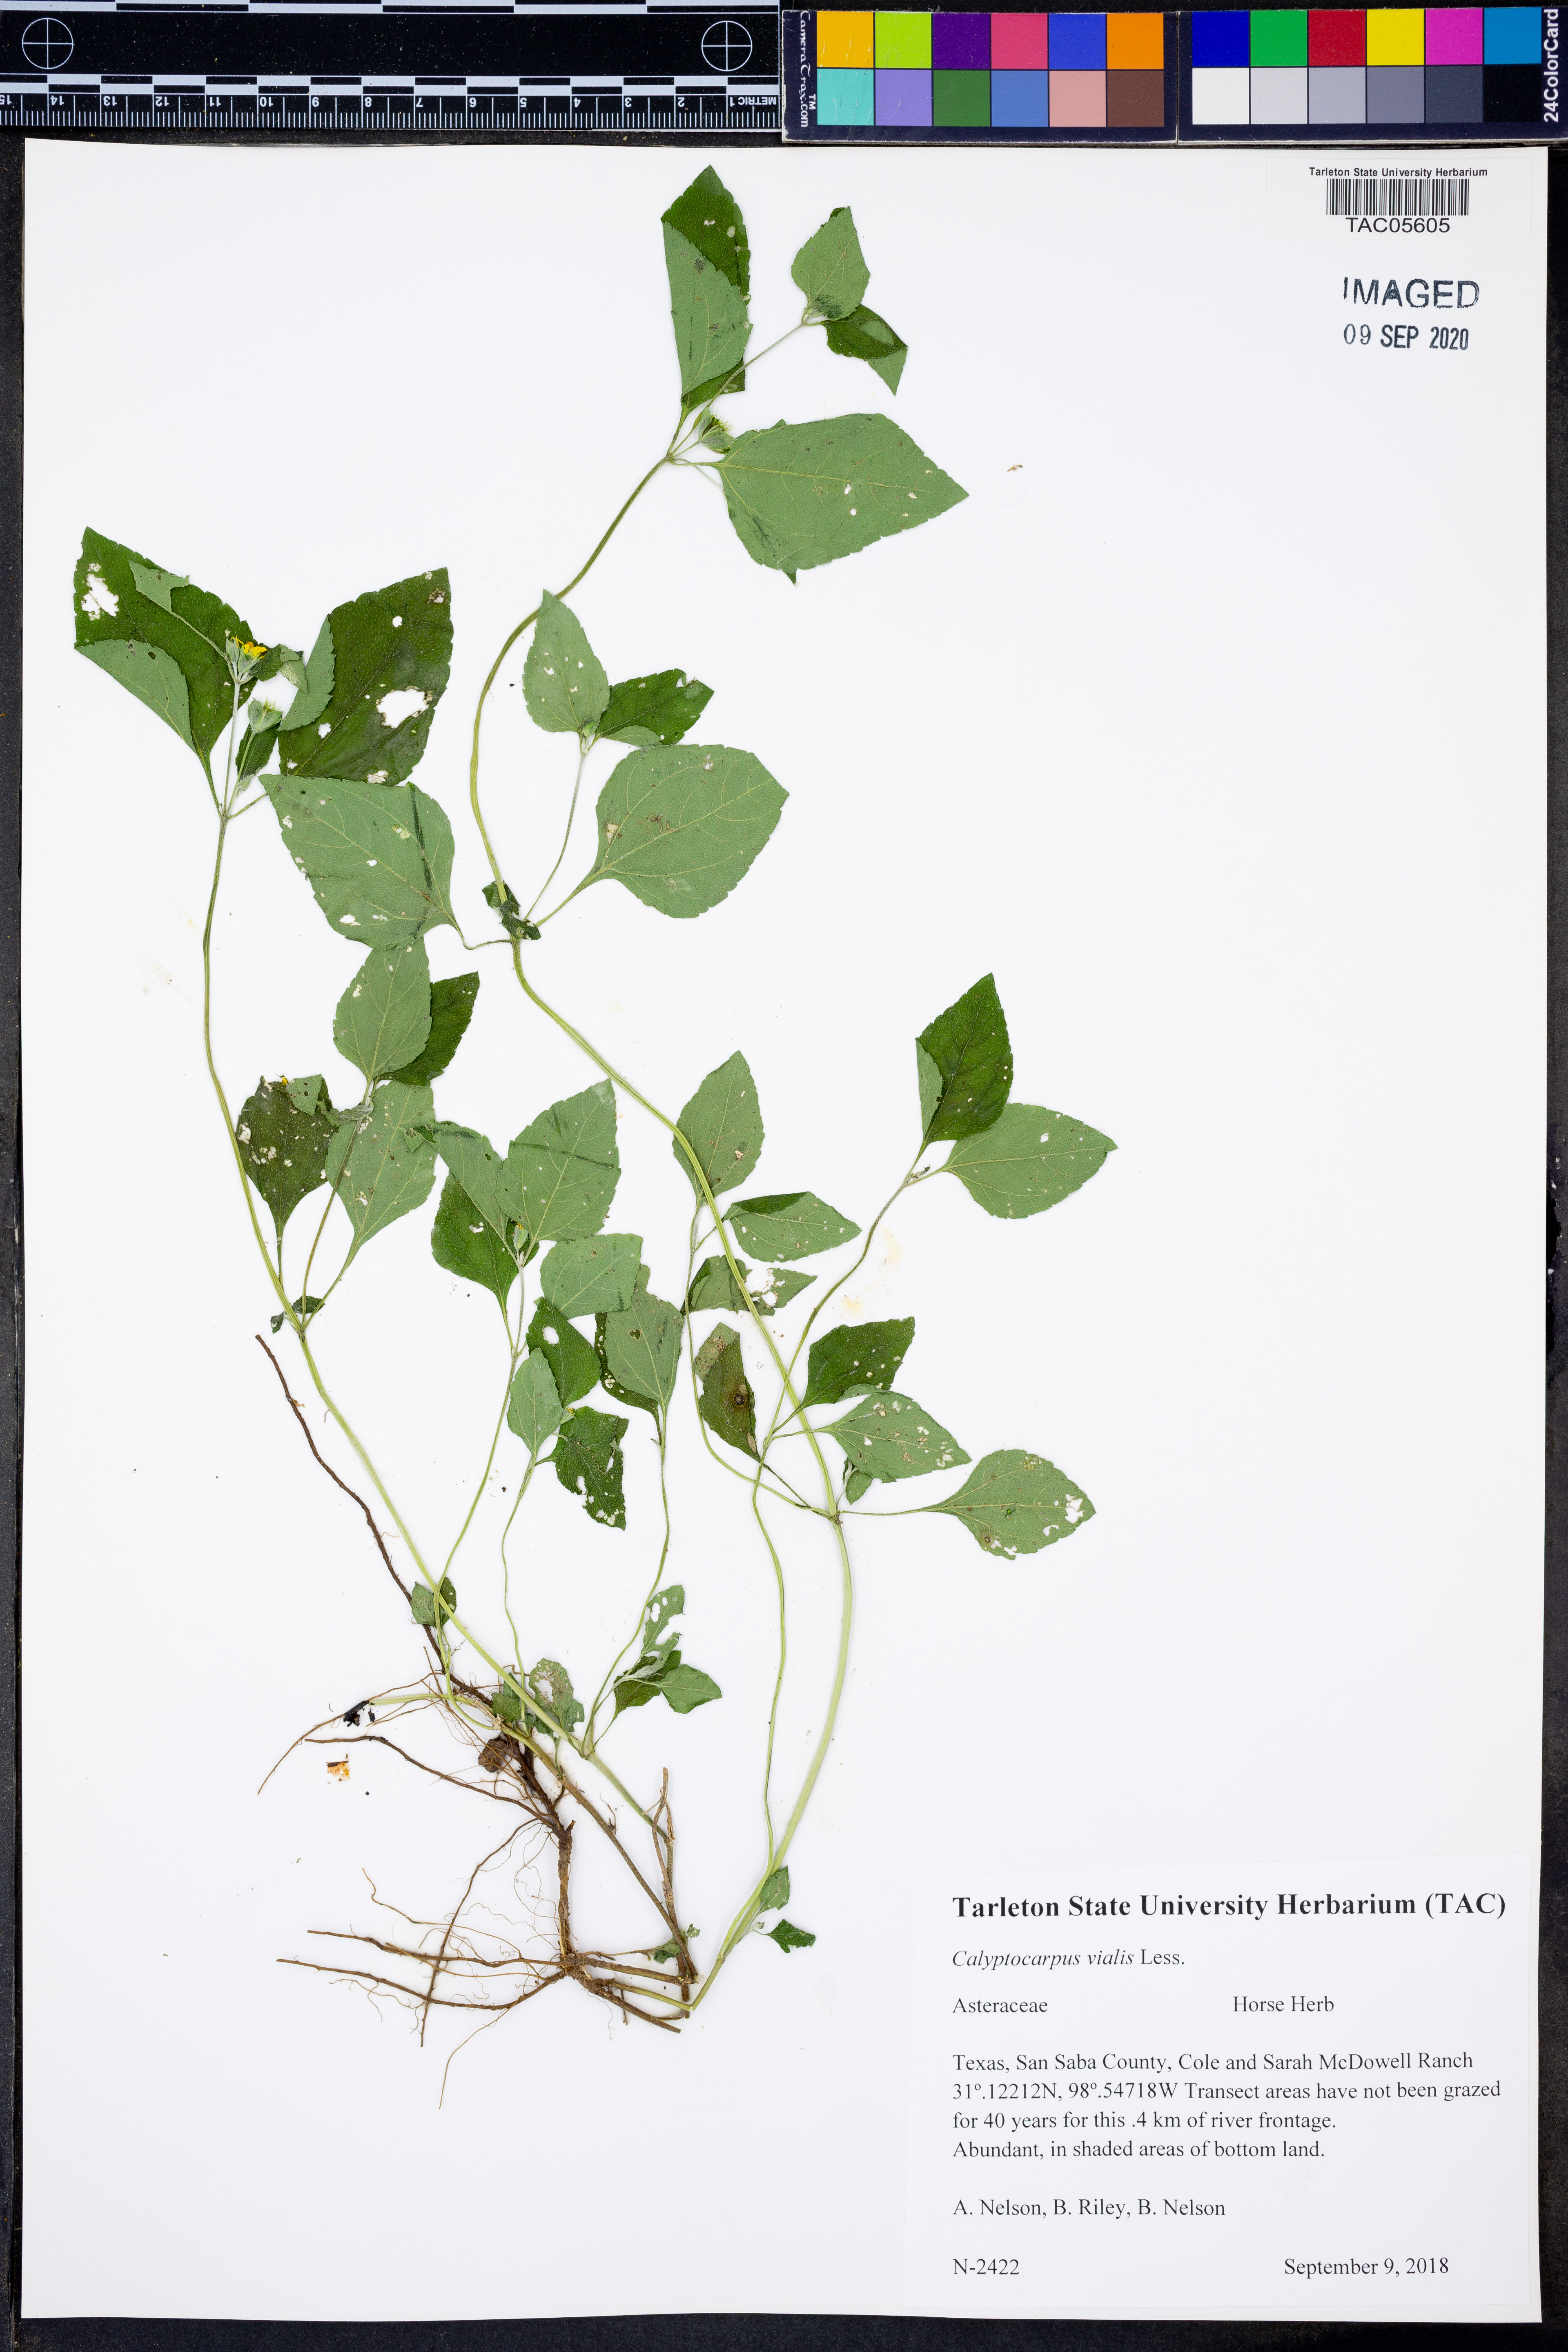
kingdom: Plantae
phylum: Tracheophyta
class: Magnoliopsida
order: Asterales
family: Asteraceae
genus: Calyptocarpus
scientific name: Calyptocarpus vialis
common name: Straggler daisy
